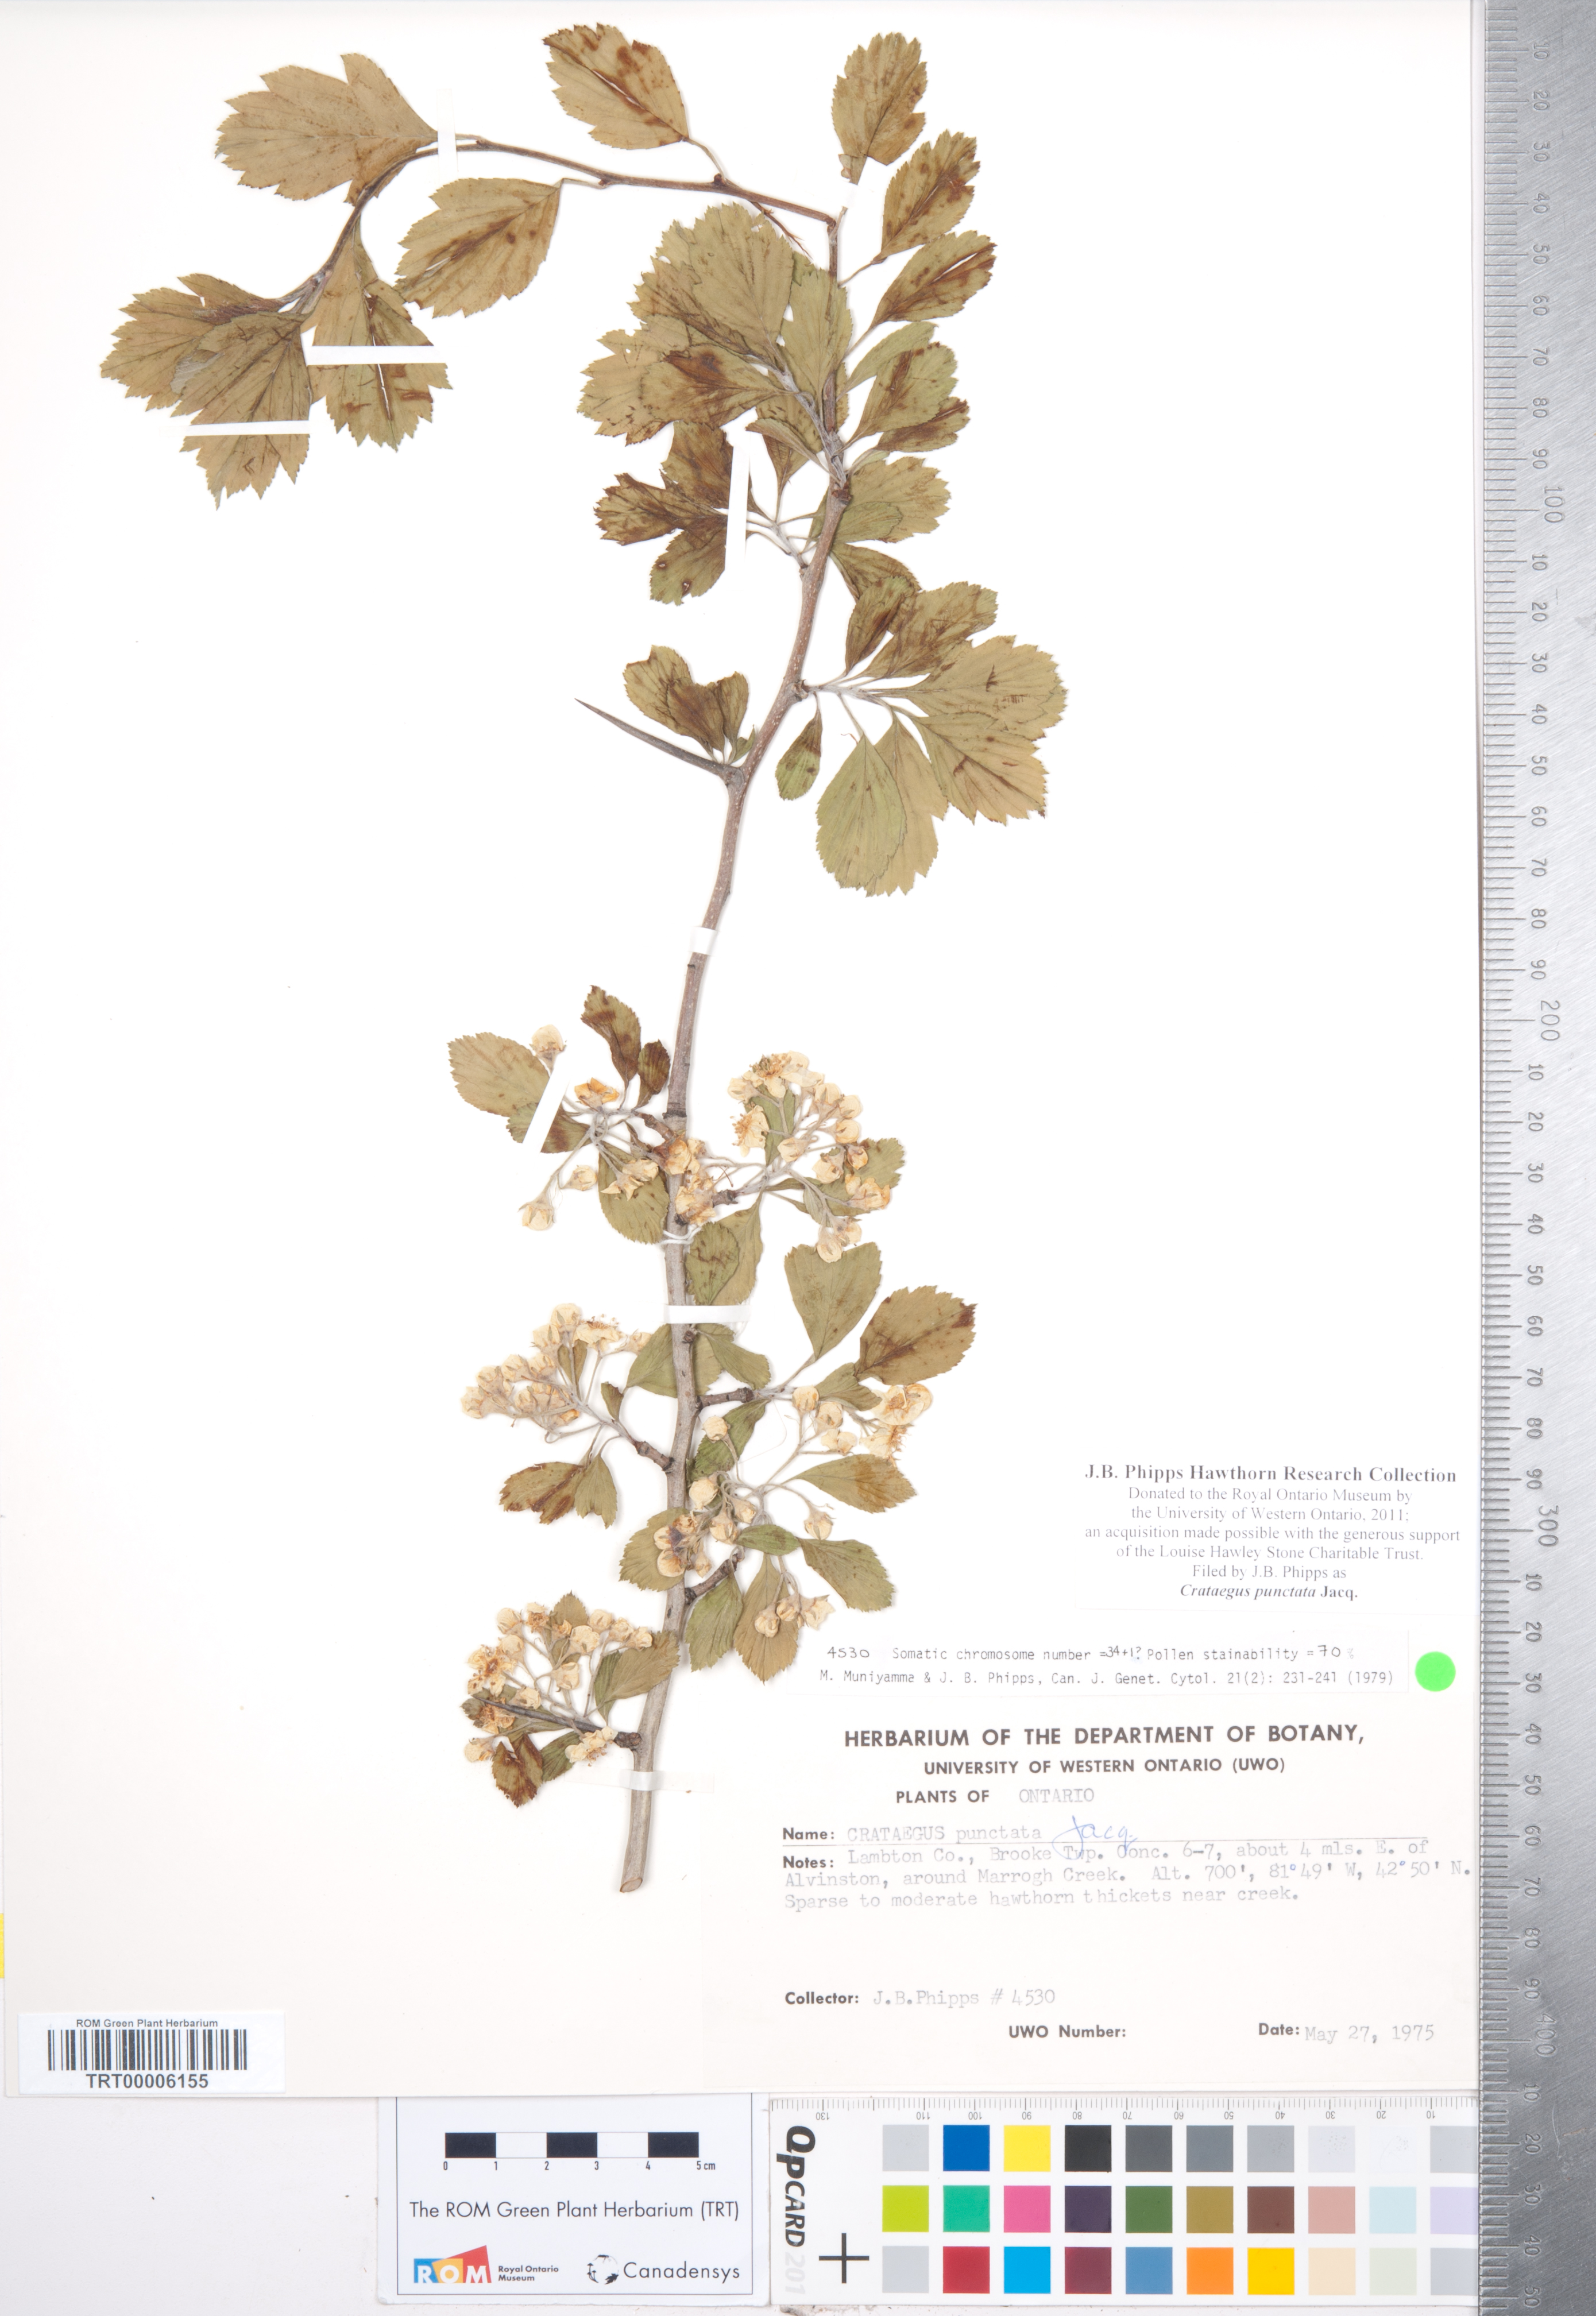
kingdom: Plantae
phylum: Tracheophyta
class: Magnoliopsida
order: Rosales
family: Rosaceae
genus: Crataegus
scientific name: Crataegus punctata
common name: Dotted hawthorn
